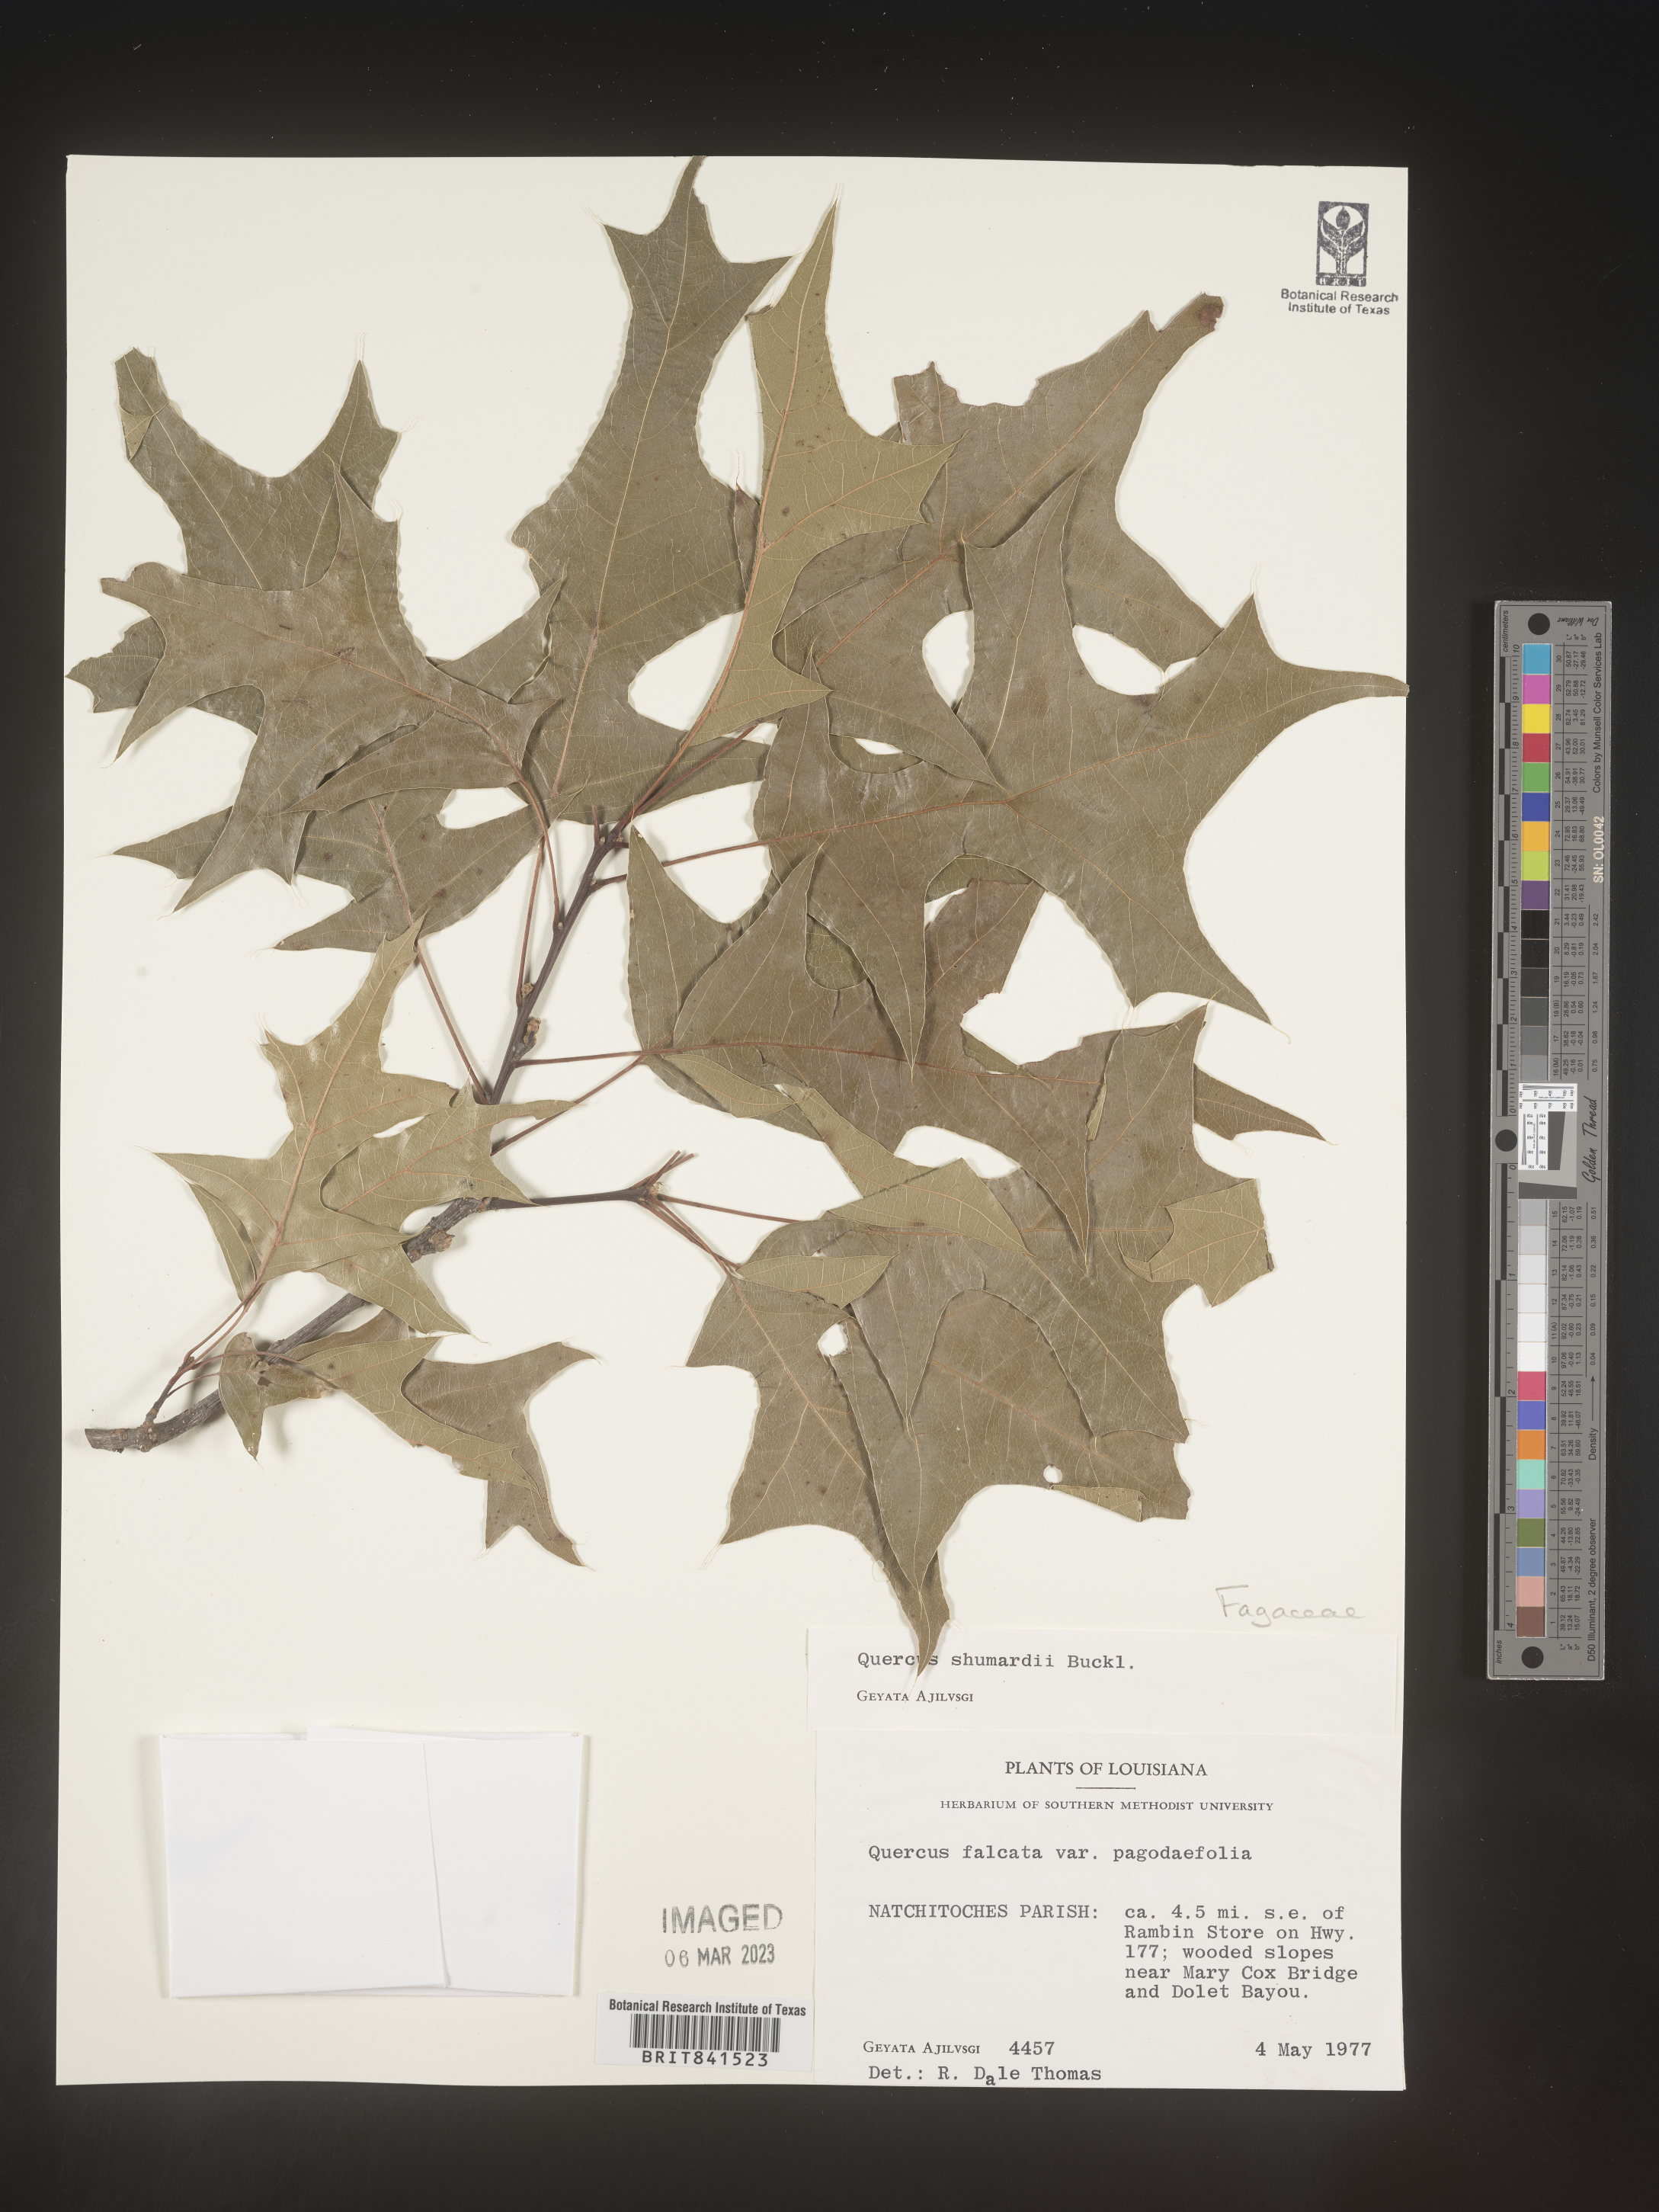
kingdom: Plantae
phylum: Tracheophyta
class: Magnoliopsida
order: Fagales
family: Fagaceae
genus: Quercus
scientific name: Quercus shumardii
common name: Shumard oak
